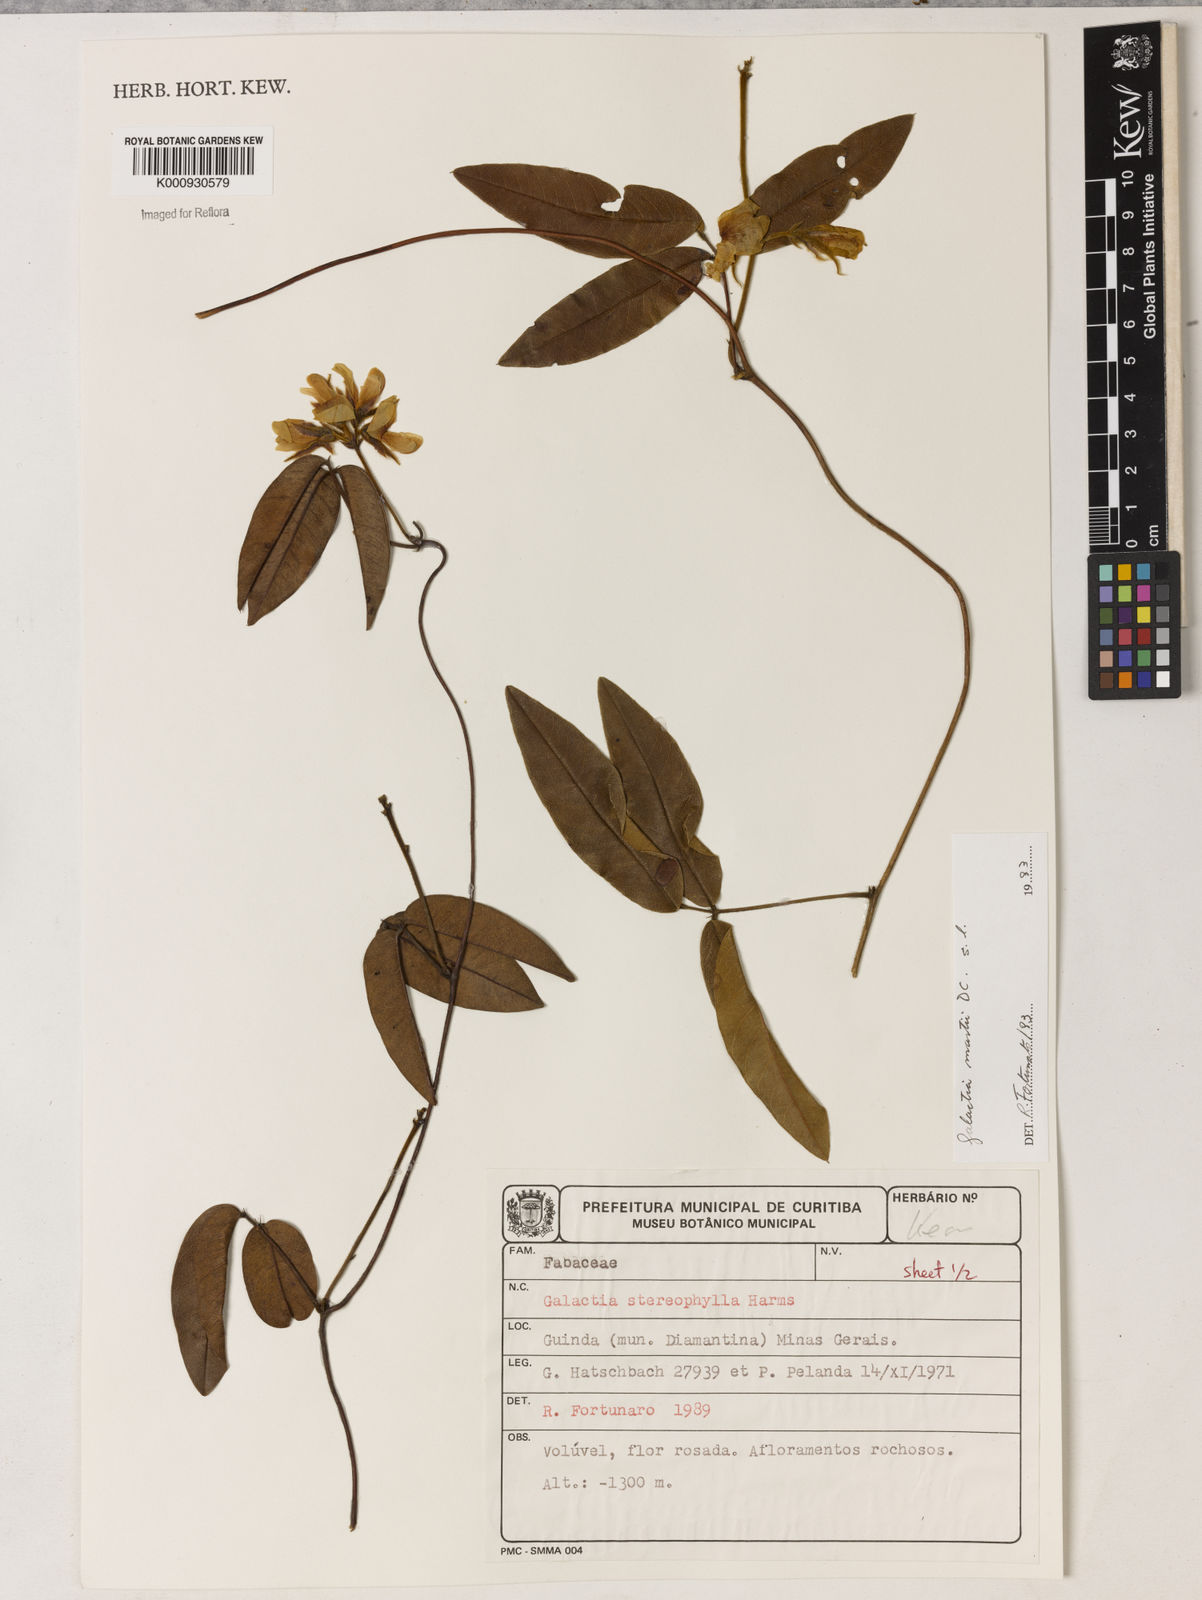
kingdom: Plantae
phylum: Tracheophyta
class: Magnoliopsida
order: Fabales
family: Fabaceae
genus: Betencourtia
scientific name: Betencourtia neesii
